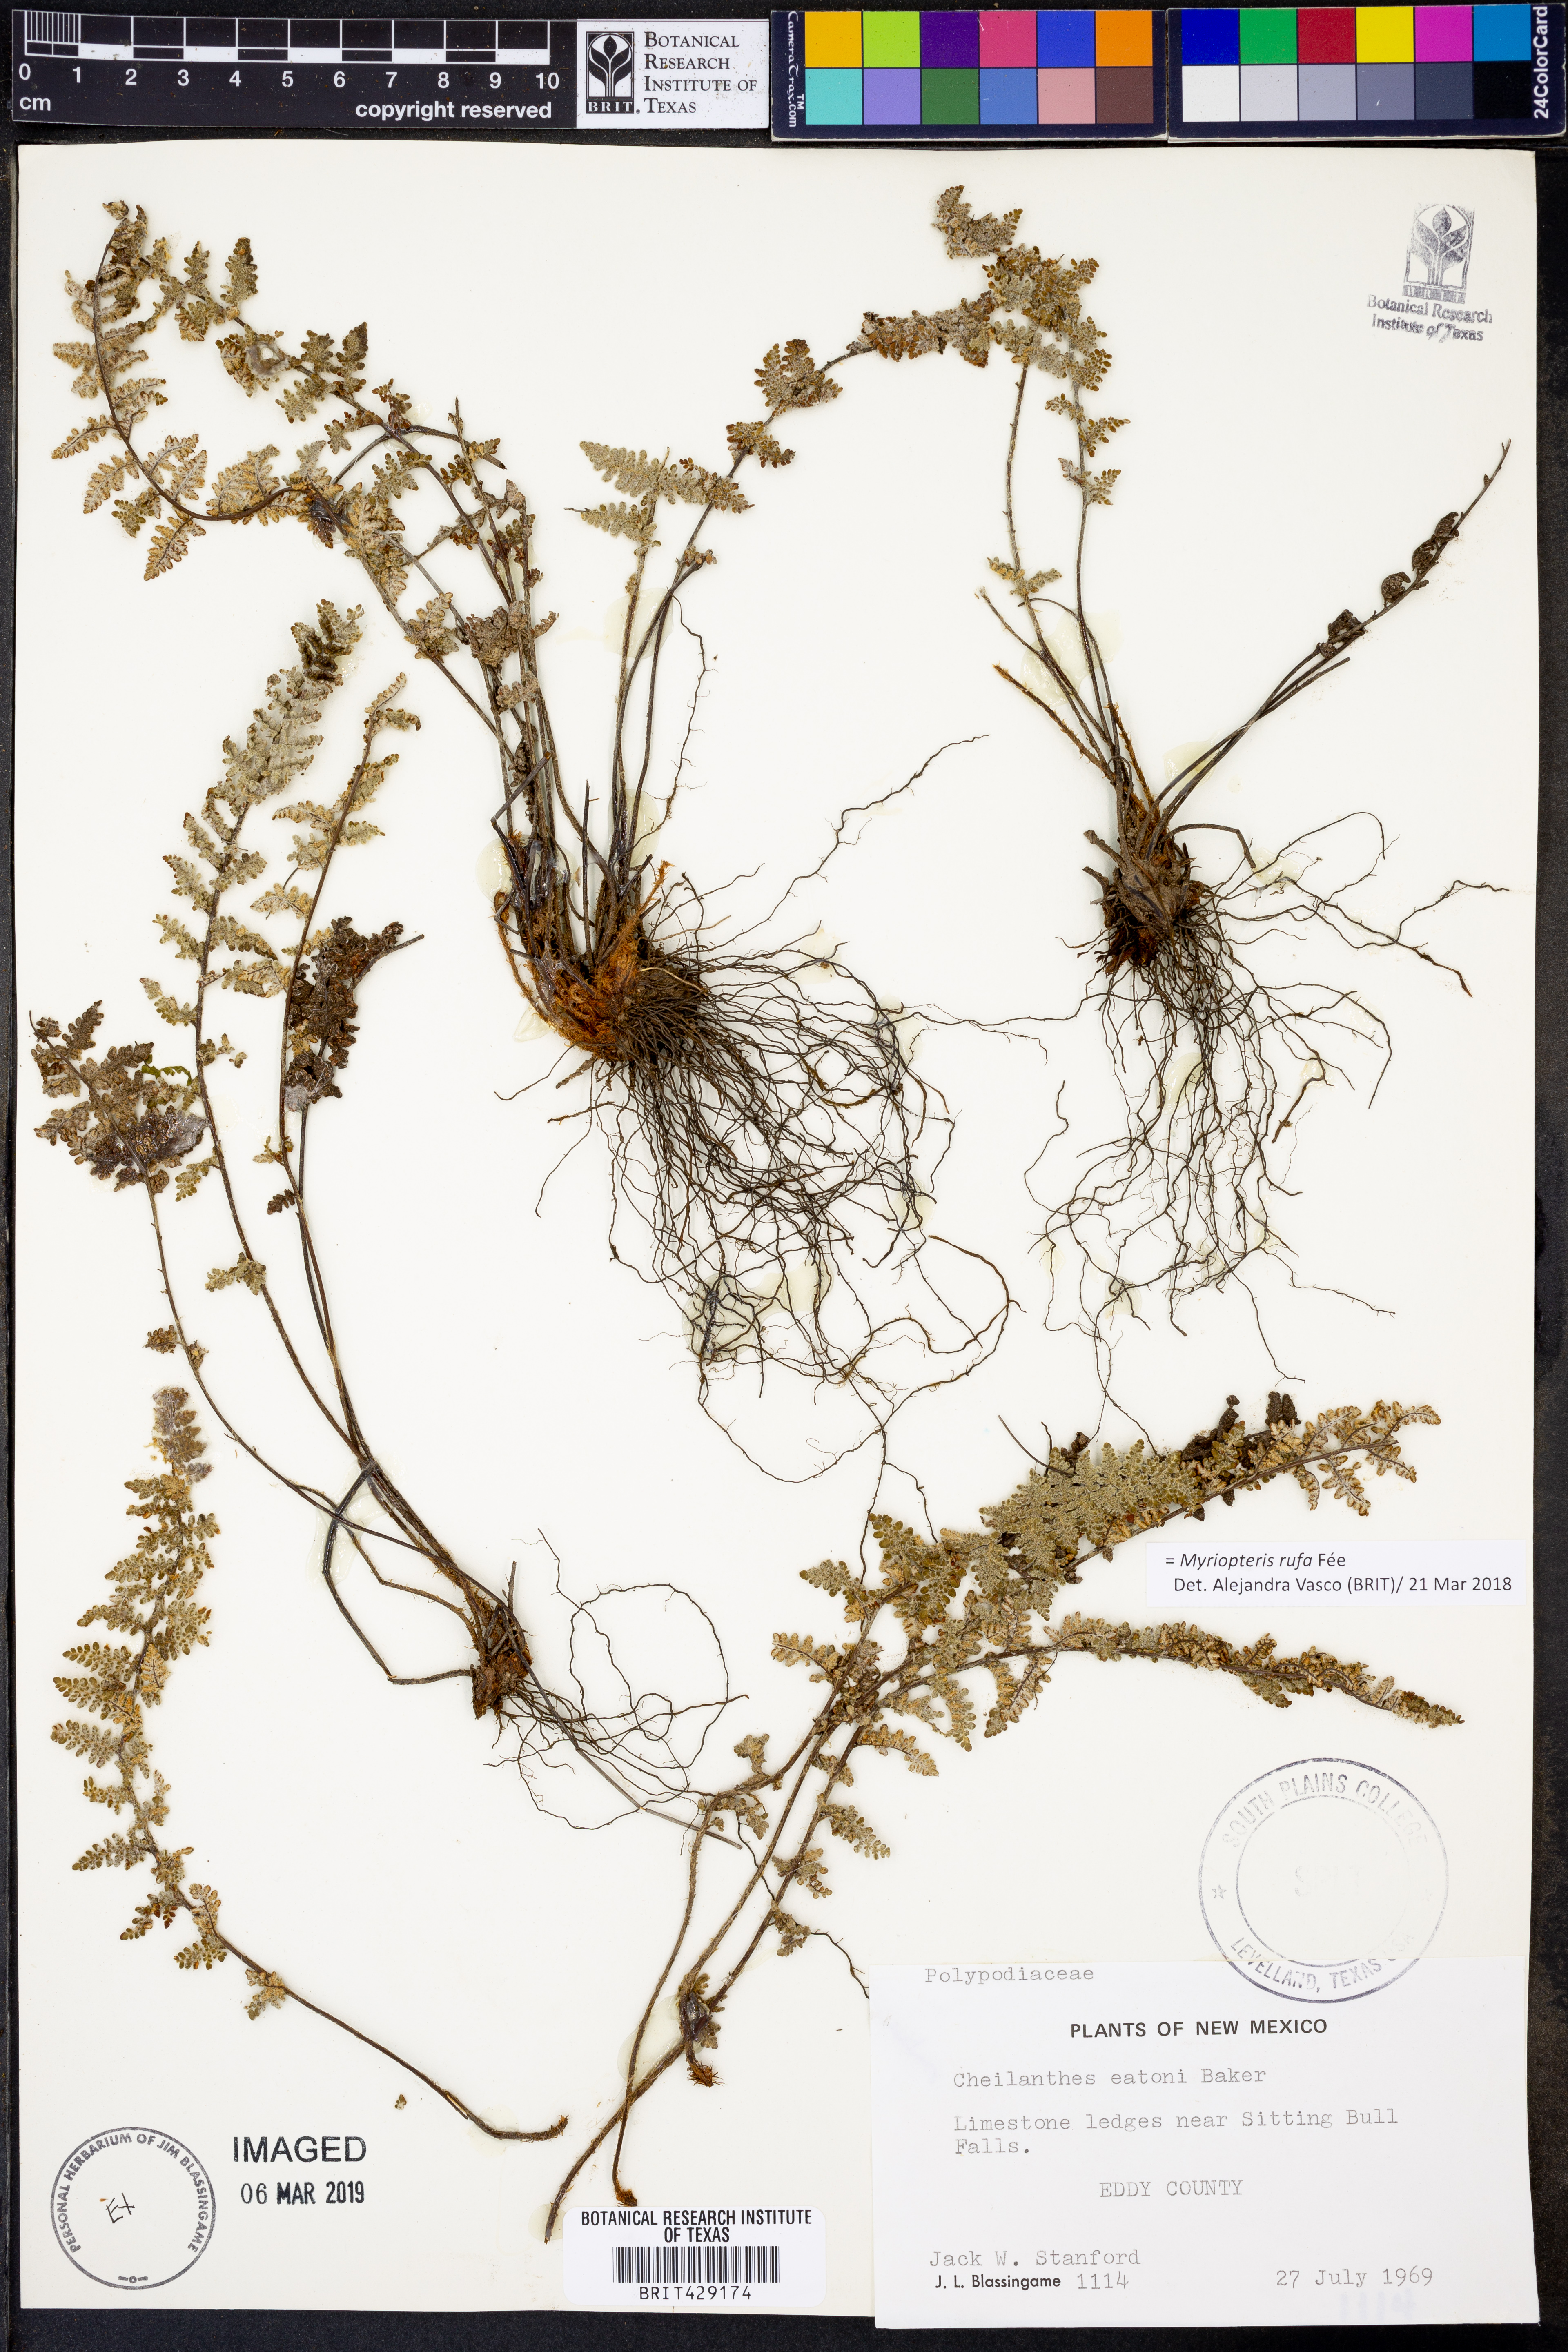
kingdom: Plantae
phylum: Tracheophyta
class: Polypodiopsida
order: Polypodiales
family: Pteridaceae
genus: Myriopteris
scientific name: Myriopteris rufa
